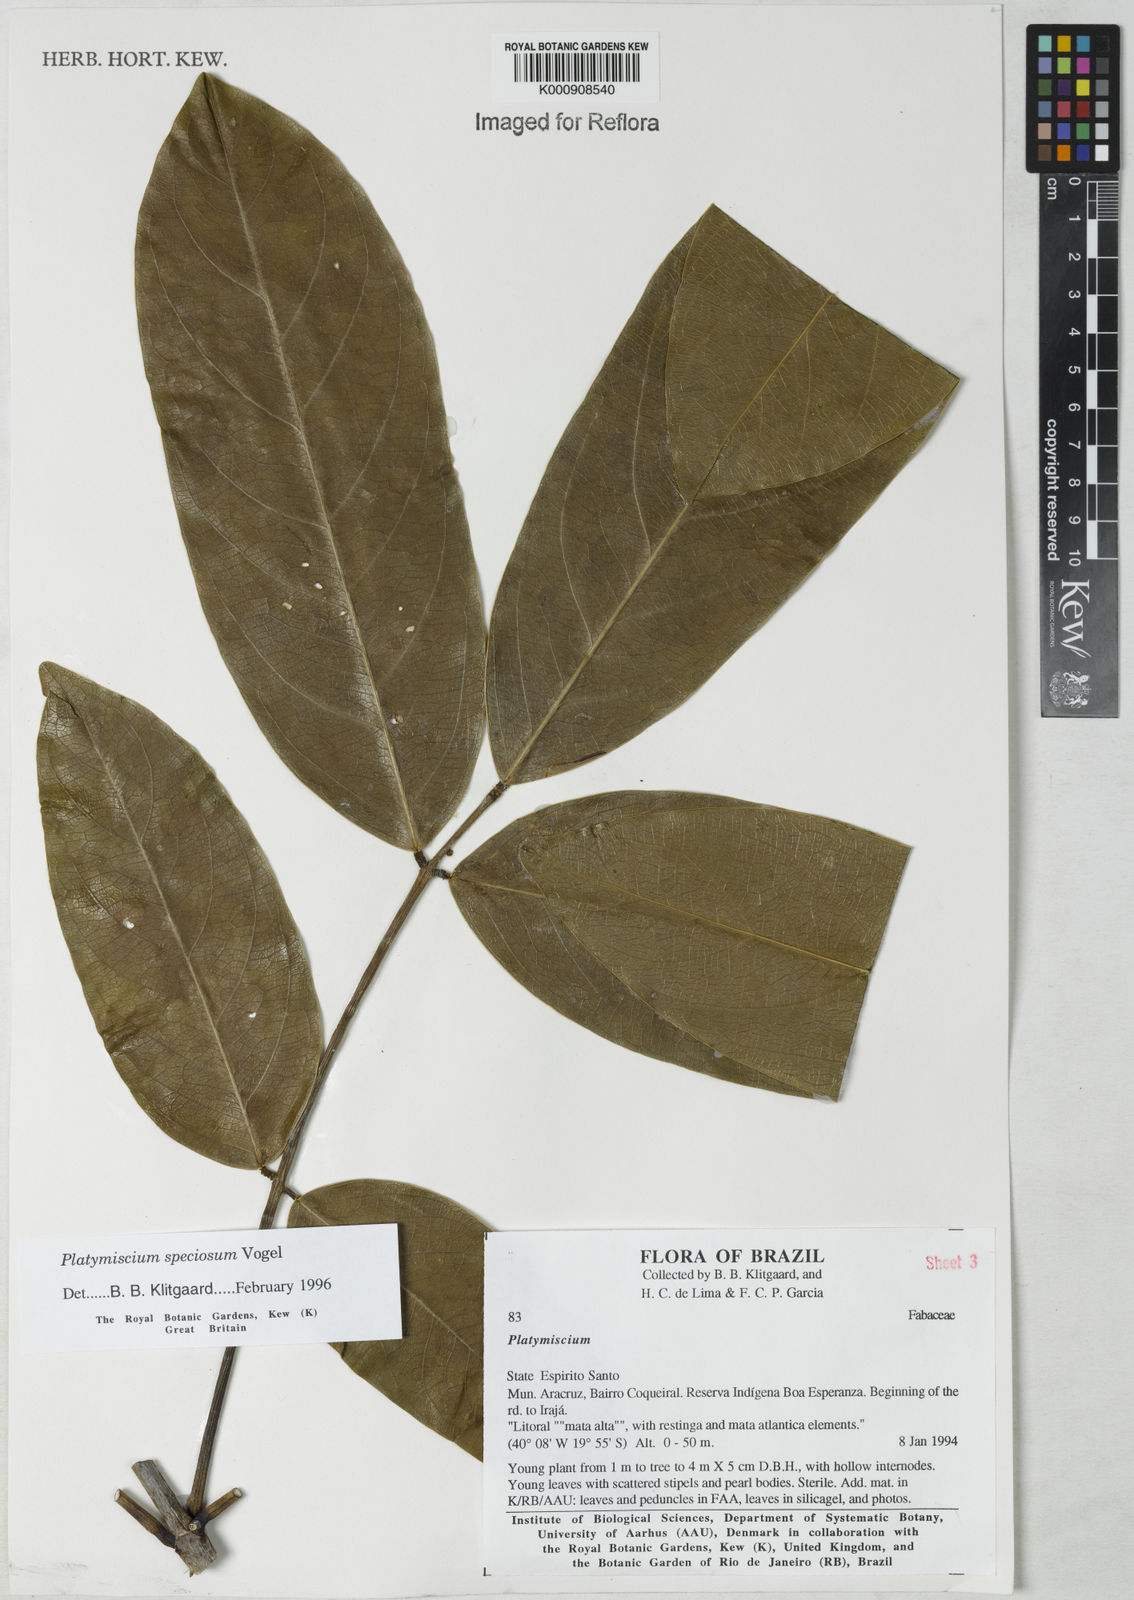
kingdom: Plantae
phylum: Tracheophyta
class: Magnoliopsida
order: Fabales
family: Fabaceae
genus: Platymiscium
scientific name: Platymiscium speciosum
